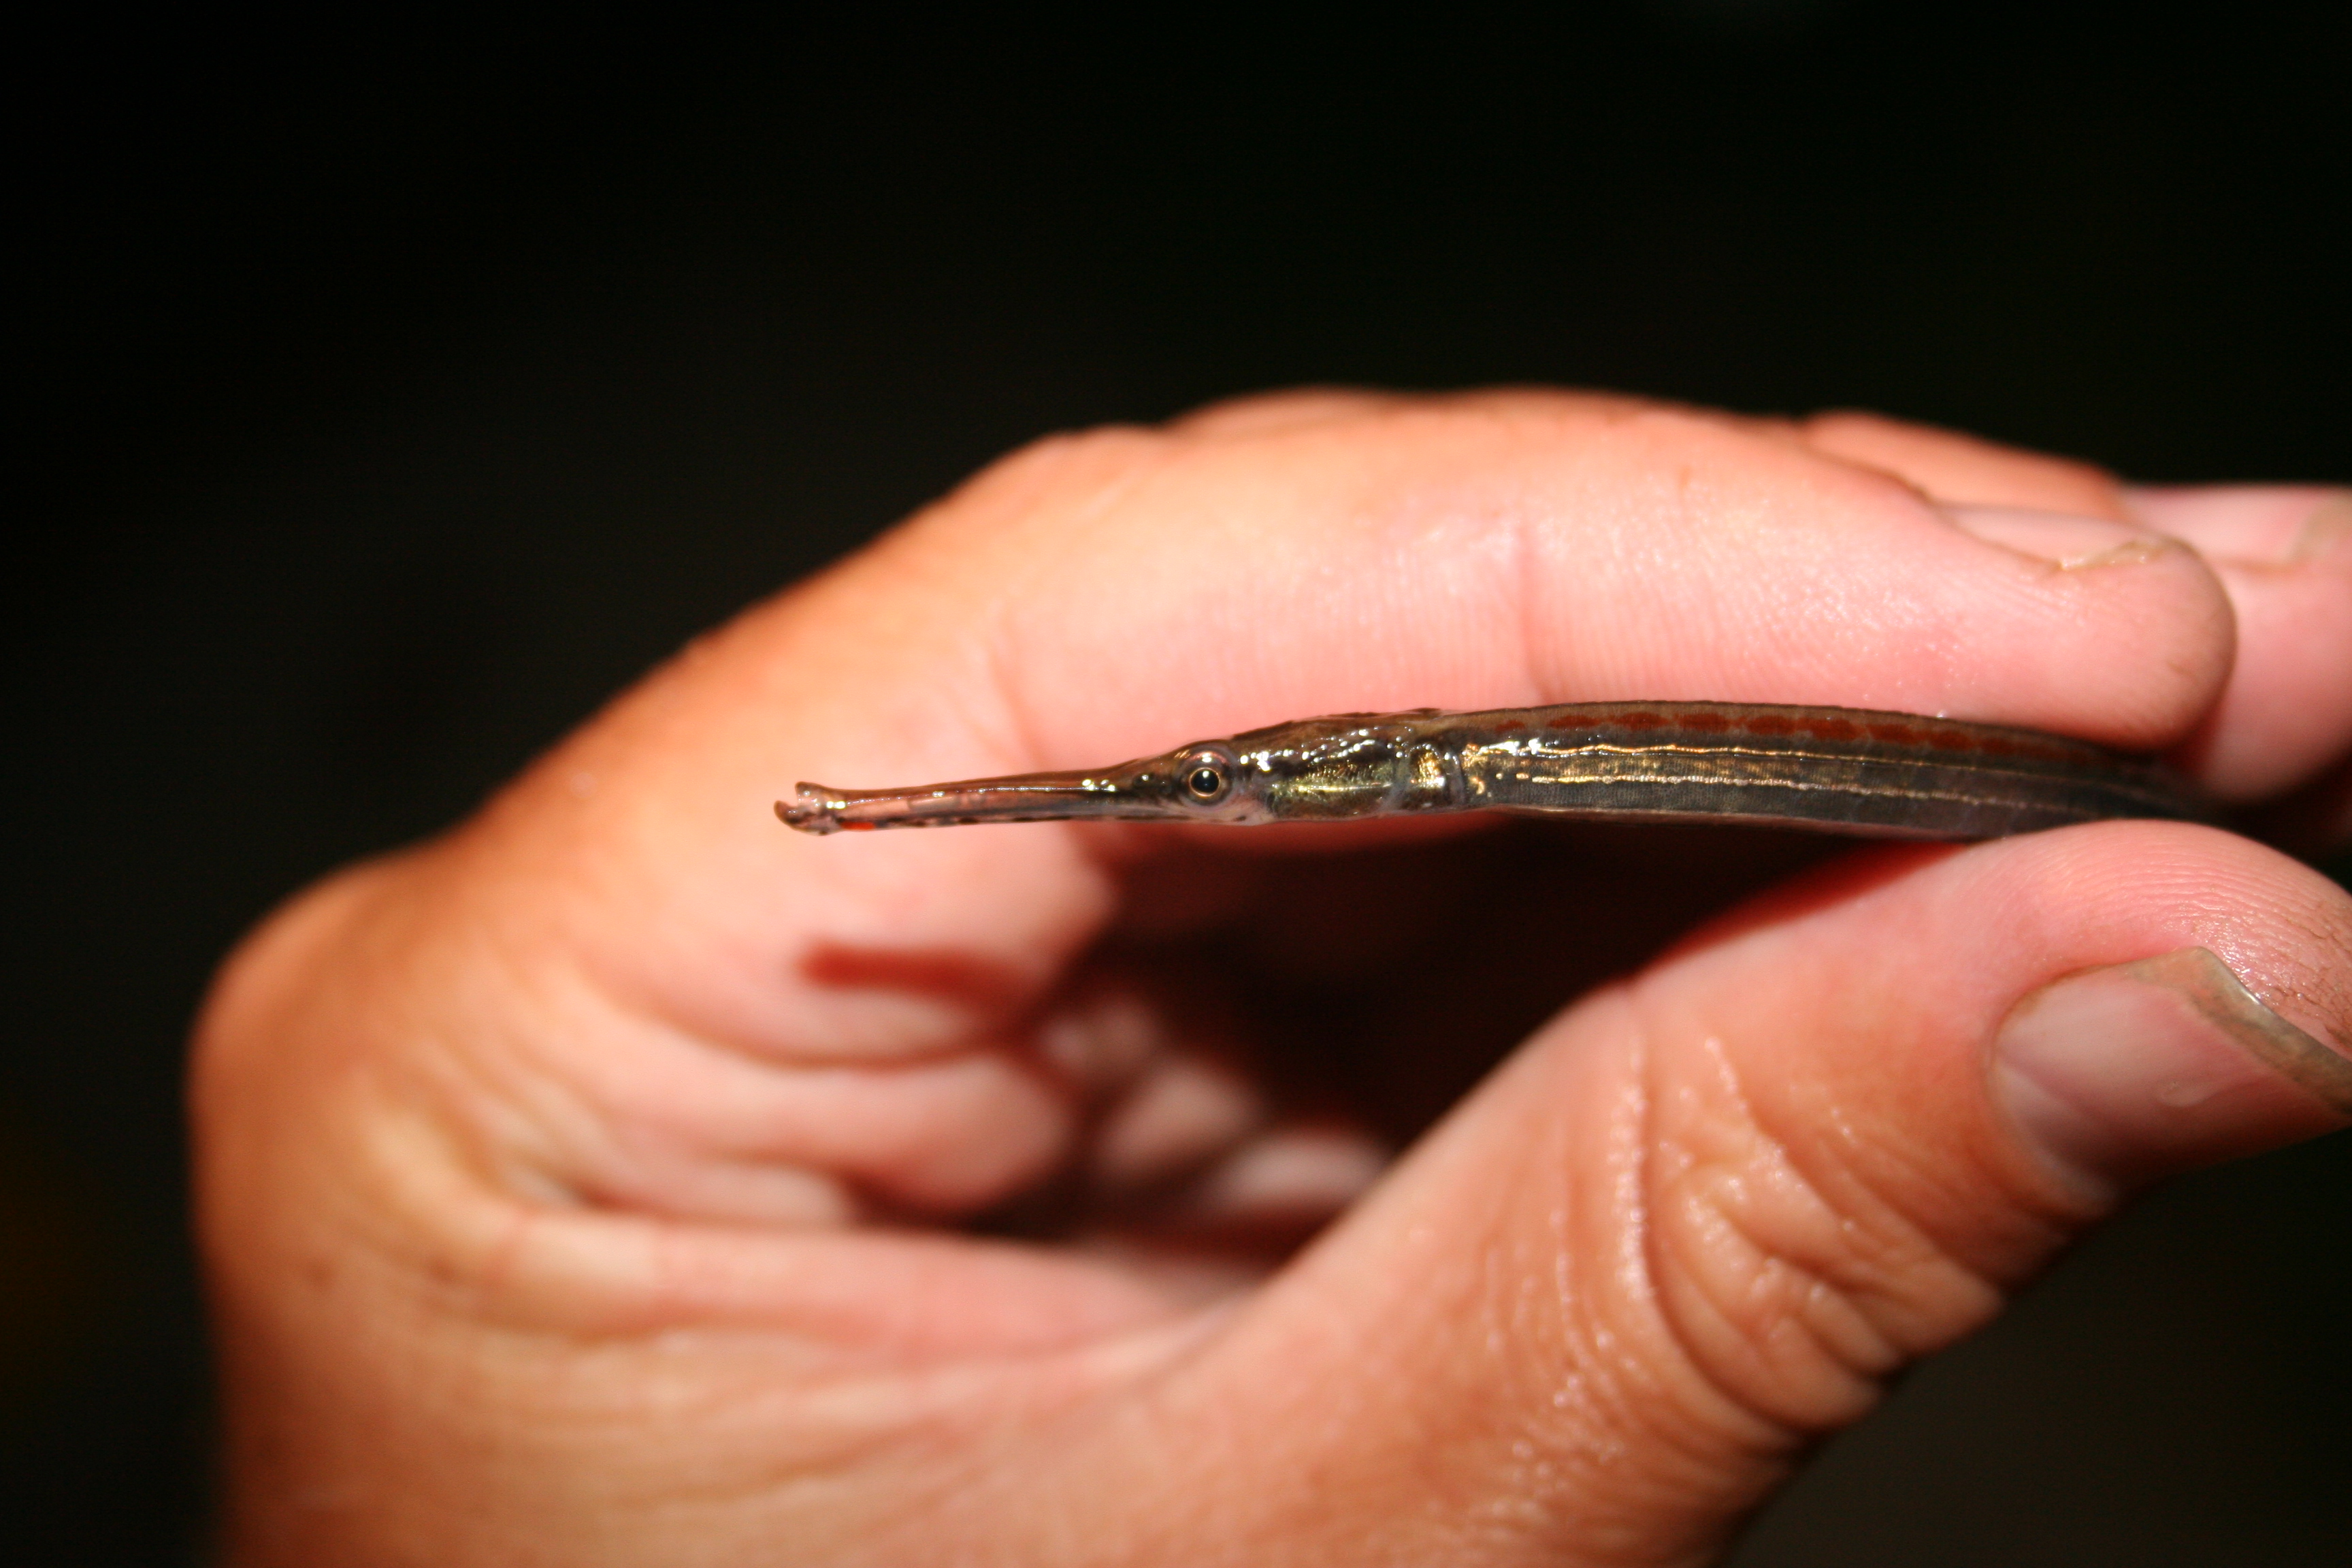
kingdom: Animalia
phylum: Chordata
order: Syngnathiformes
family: Syngnathidae
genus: Microphis
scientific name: Microphis aculeatus
